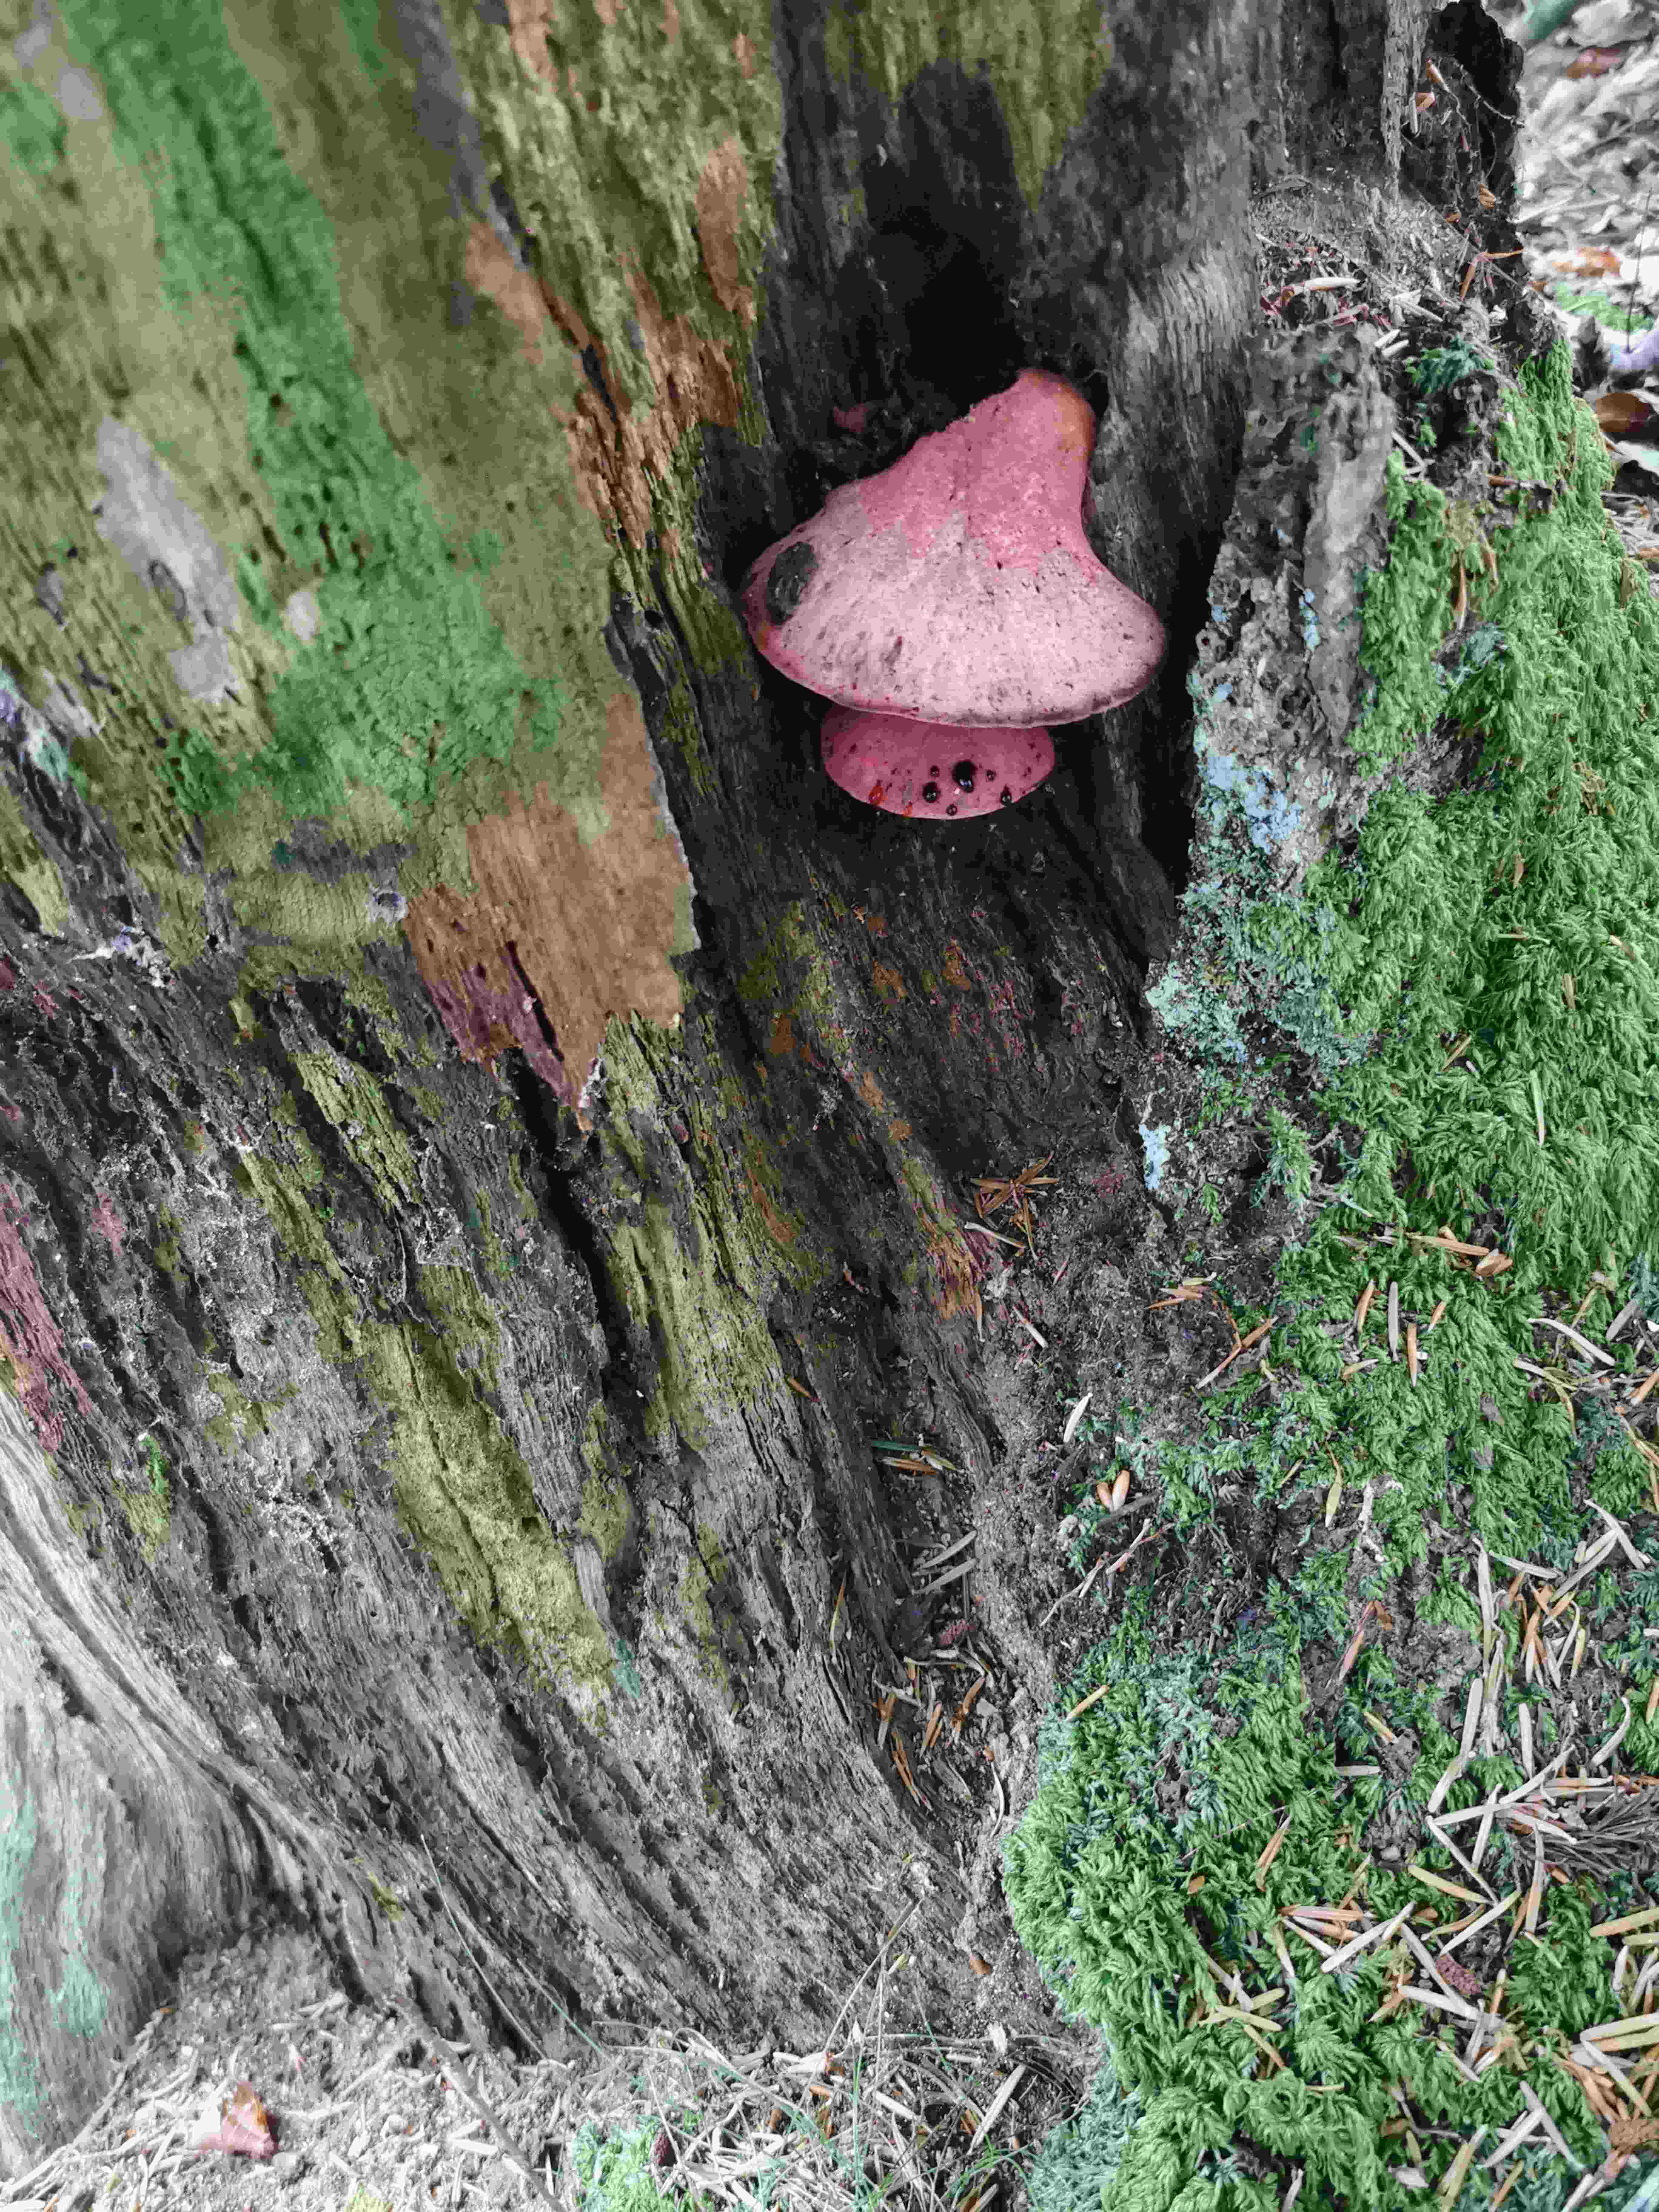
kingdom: Fungi
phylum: Basidiomycota
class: Agaricomycetes
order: Agaricales
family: Fistulinaceae
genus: Fistulina
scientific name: Fistulina hepatica
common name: oksetunge
